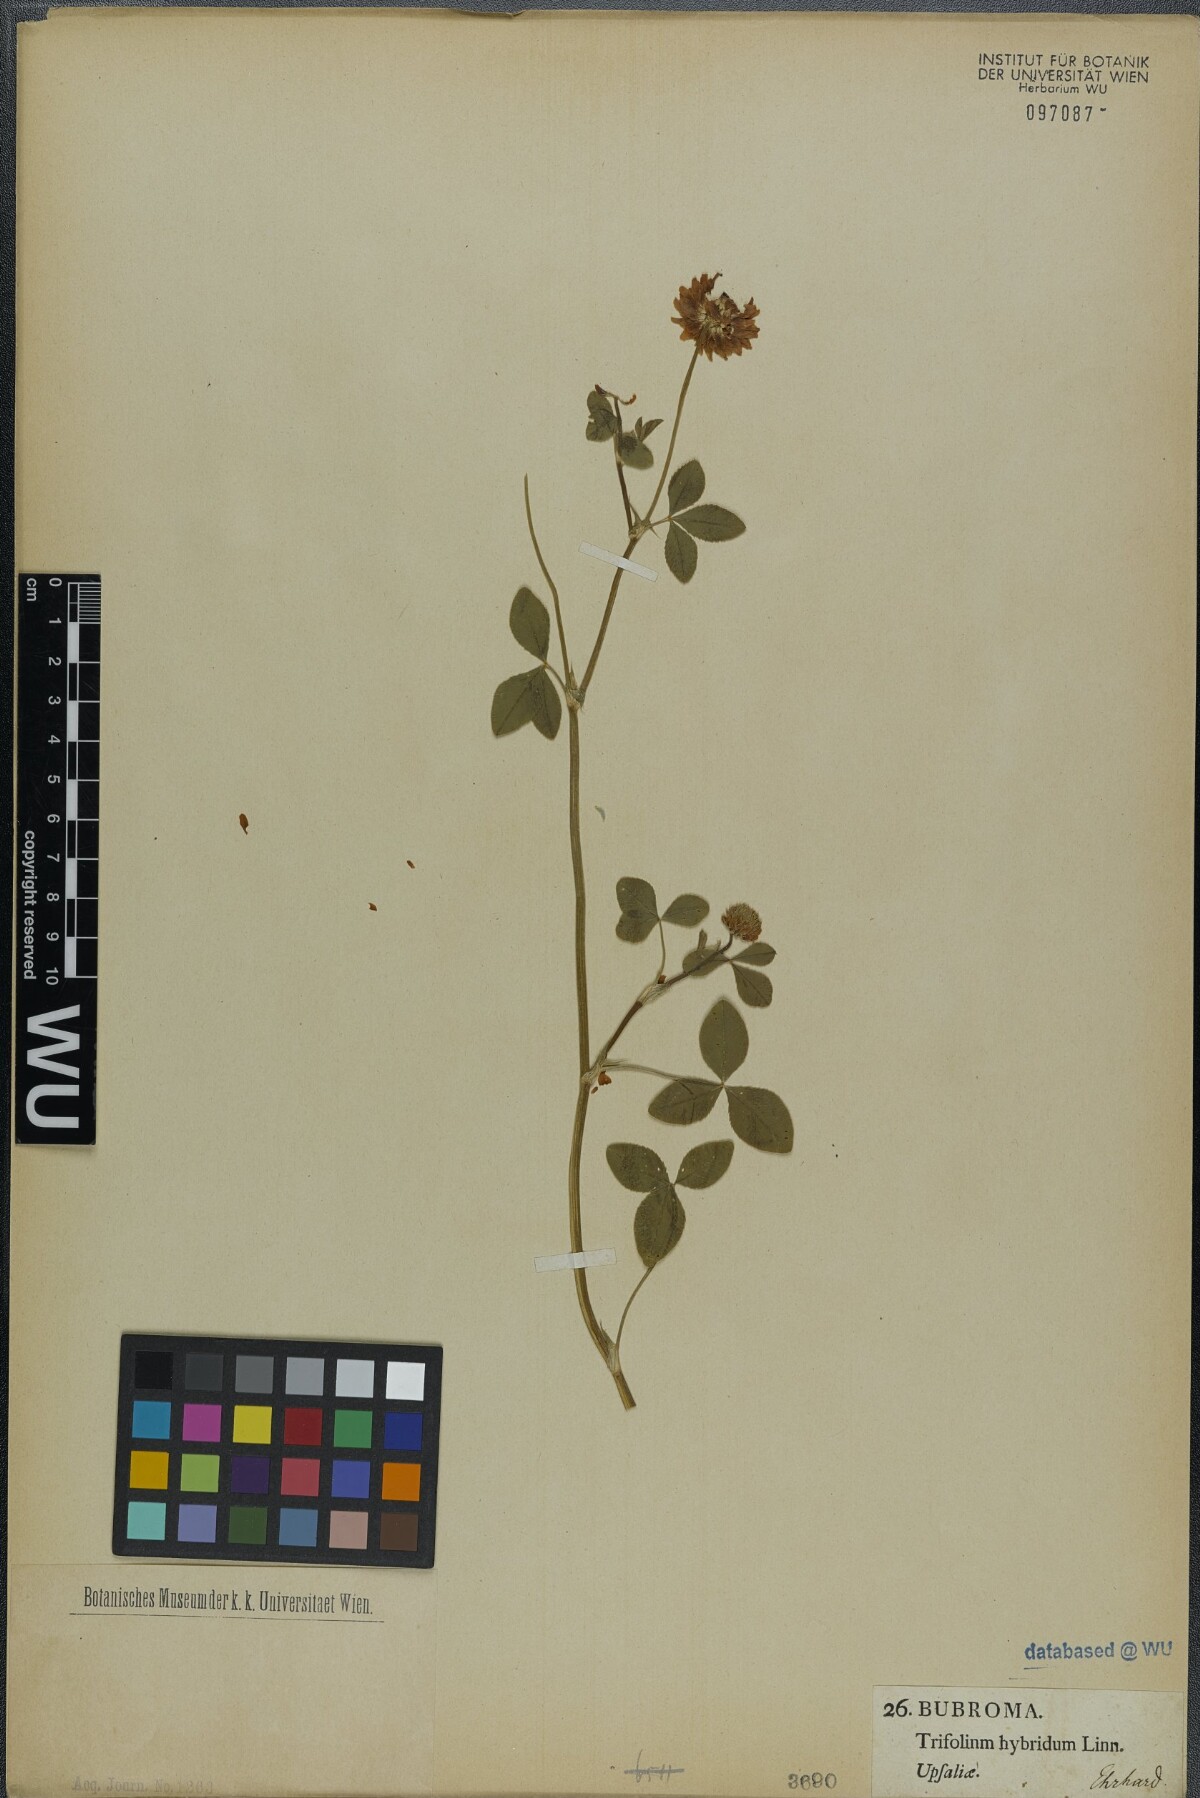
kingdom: Plantae
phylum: Tracheophyta
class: Magnoliopsida
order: Fabales
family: Fabaceae
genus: Trifolium
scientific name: Trifolium hybridum
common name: Alsike clover
